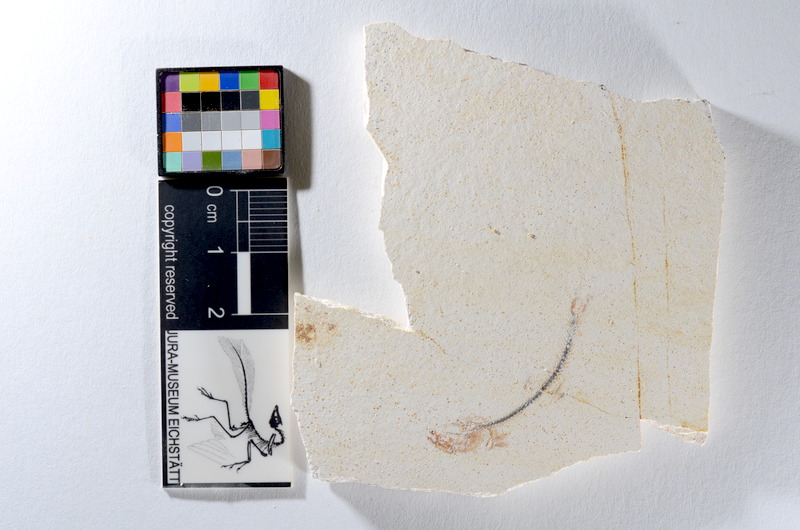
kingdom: Animalia
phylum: Chordata
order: Salmoniformes
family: Orthogonikleithridae
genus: Orthogonikleithrus
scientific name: Orthogonikleithrus hoelli
